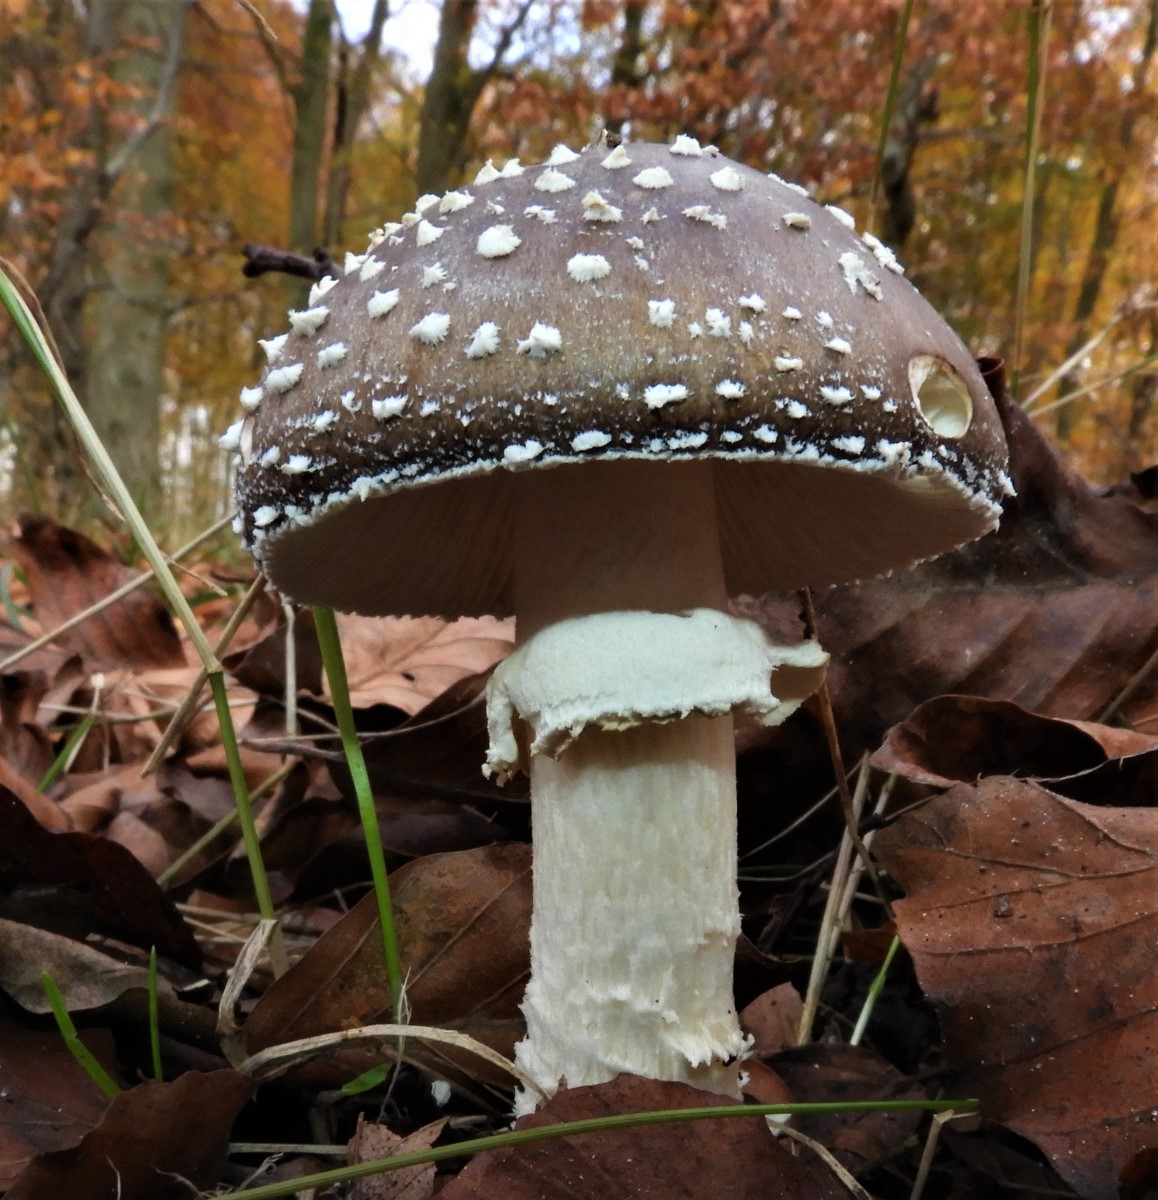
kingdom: Fungi
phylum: Basidiomycota
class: Agaricomycetes
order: Agaricales
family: Amanitaceae
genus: Amanita
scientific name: Amanita pantherina
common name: panter-fluesvamp
